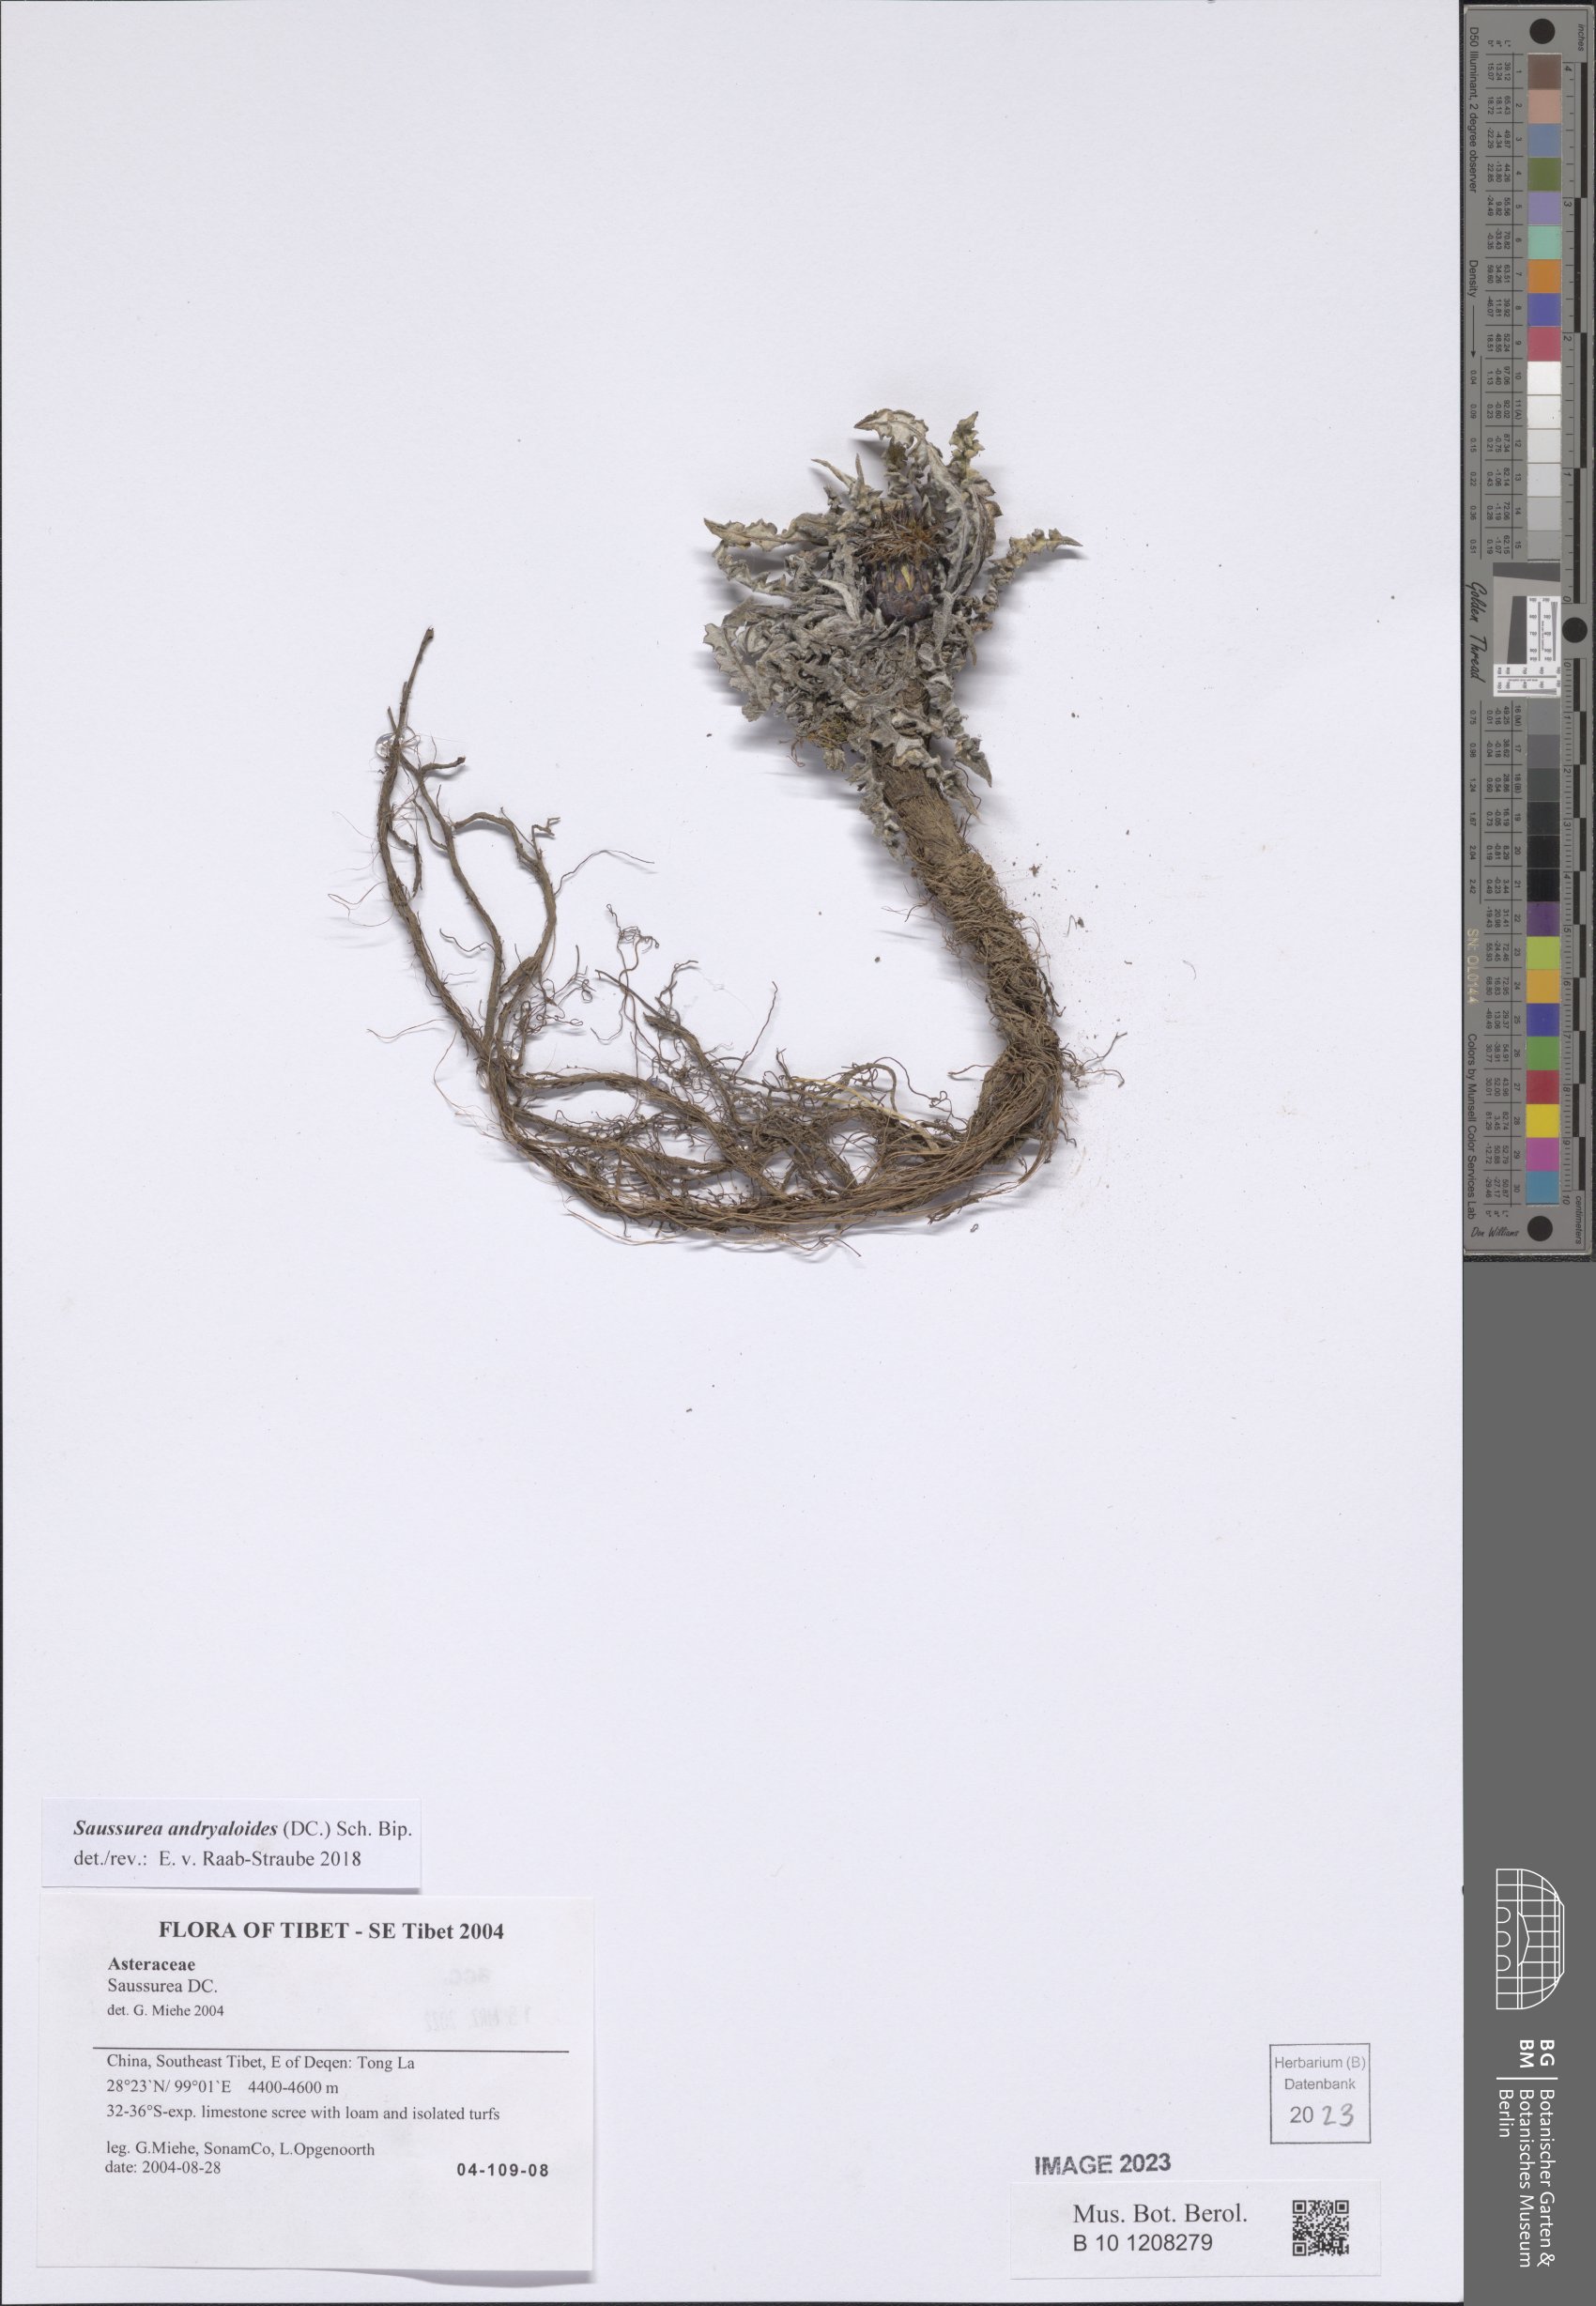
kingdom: Plantae
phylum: Tracheophyta
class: Magnoliopsida
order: Asterales
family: Asteraceae
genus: Saussurea
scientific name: Saussurea andryaloides
